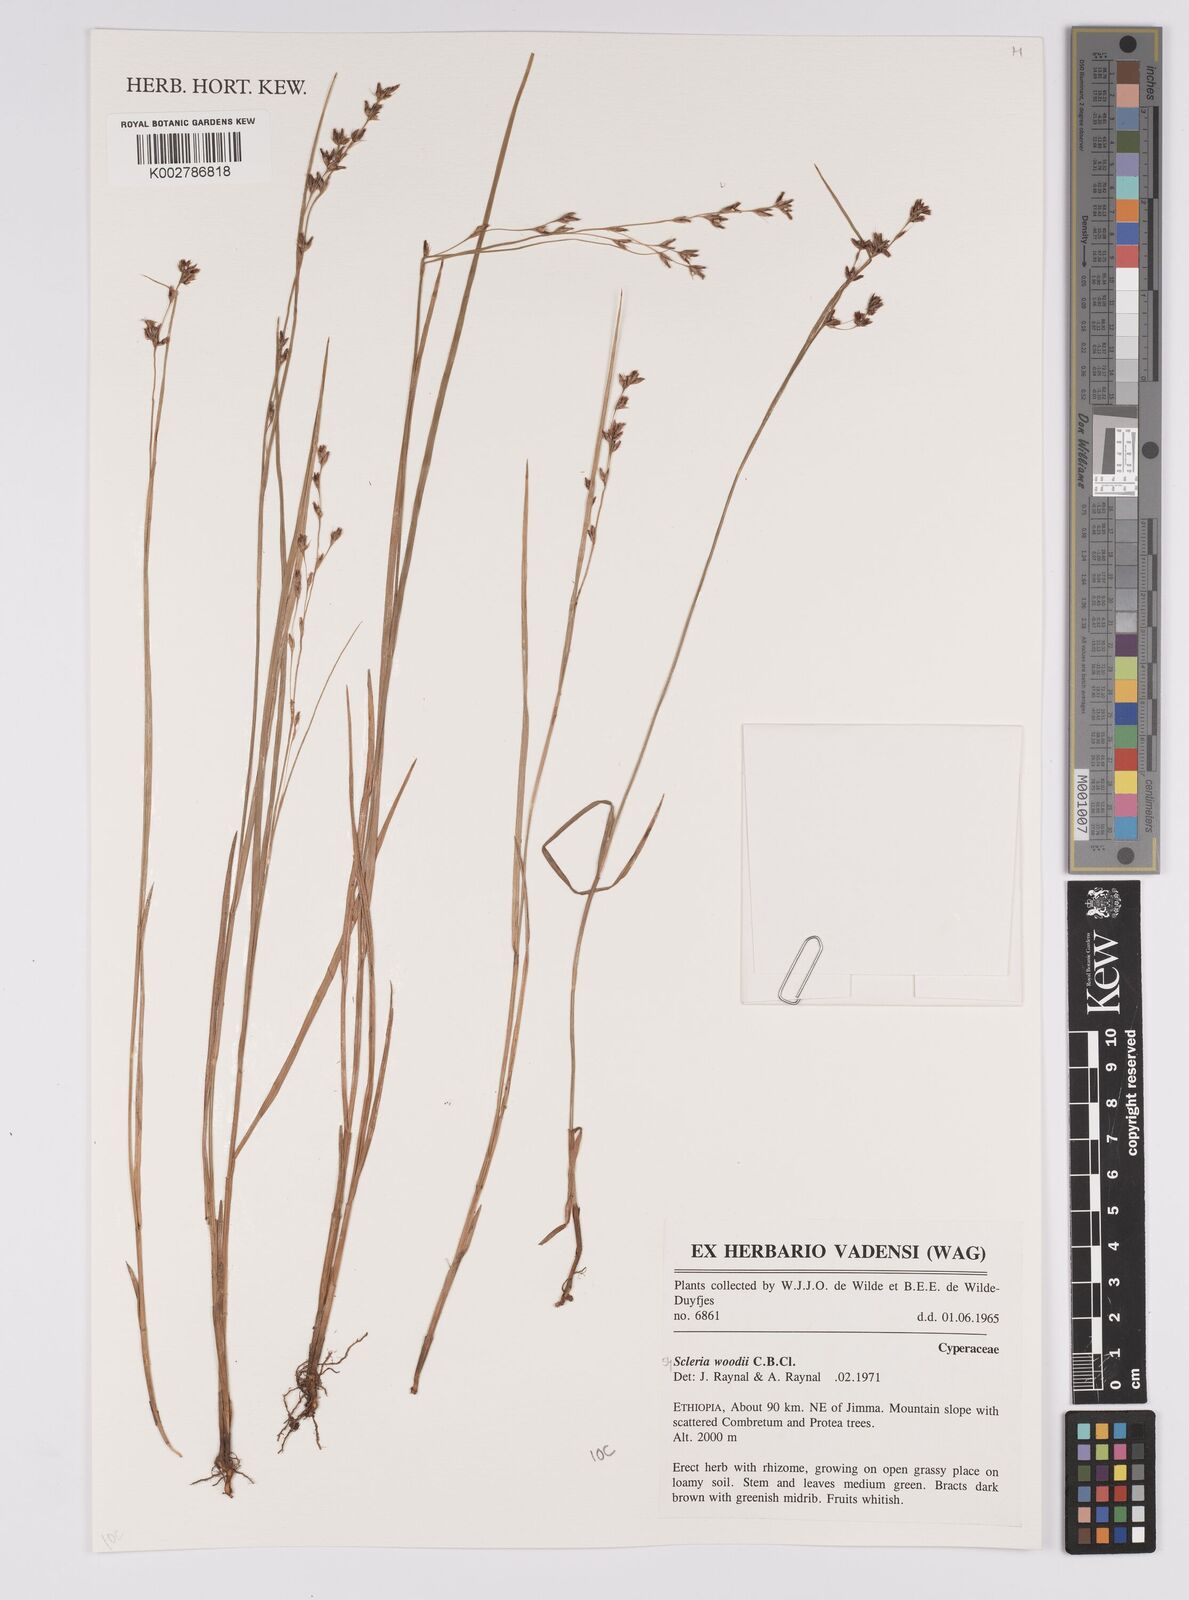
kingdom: Plantae
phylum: Tracheophyta
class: Liliopsida
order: Poales
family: Cyperaceae
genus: Scleria
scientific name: Scleria woodii
